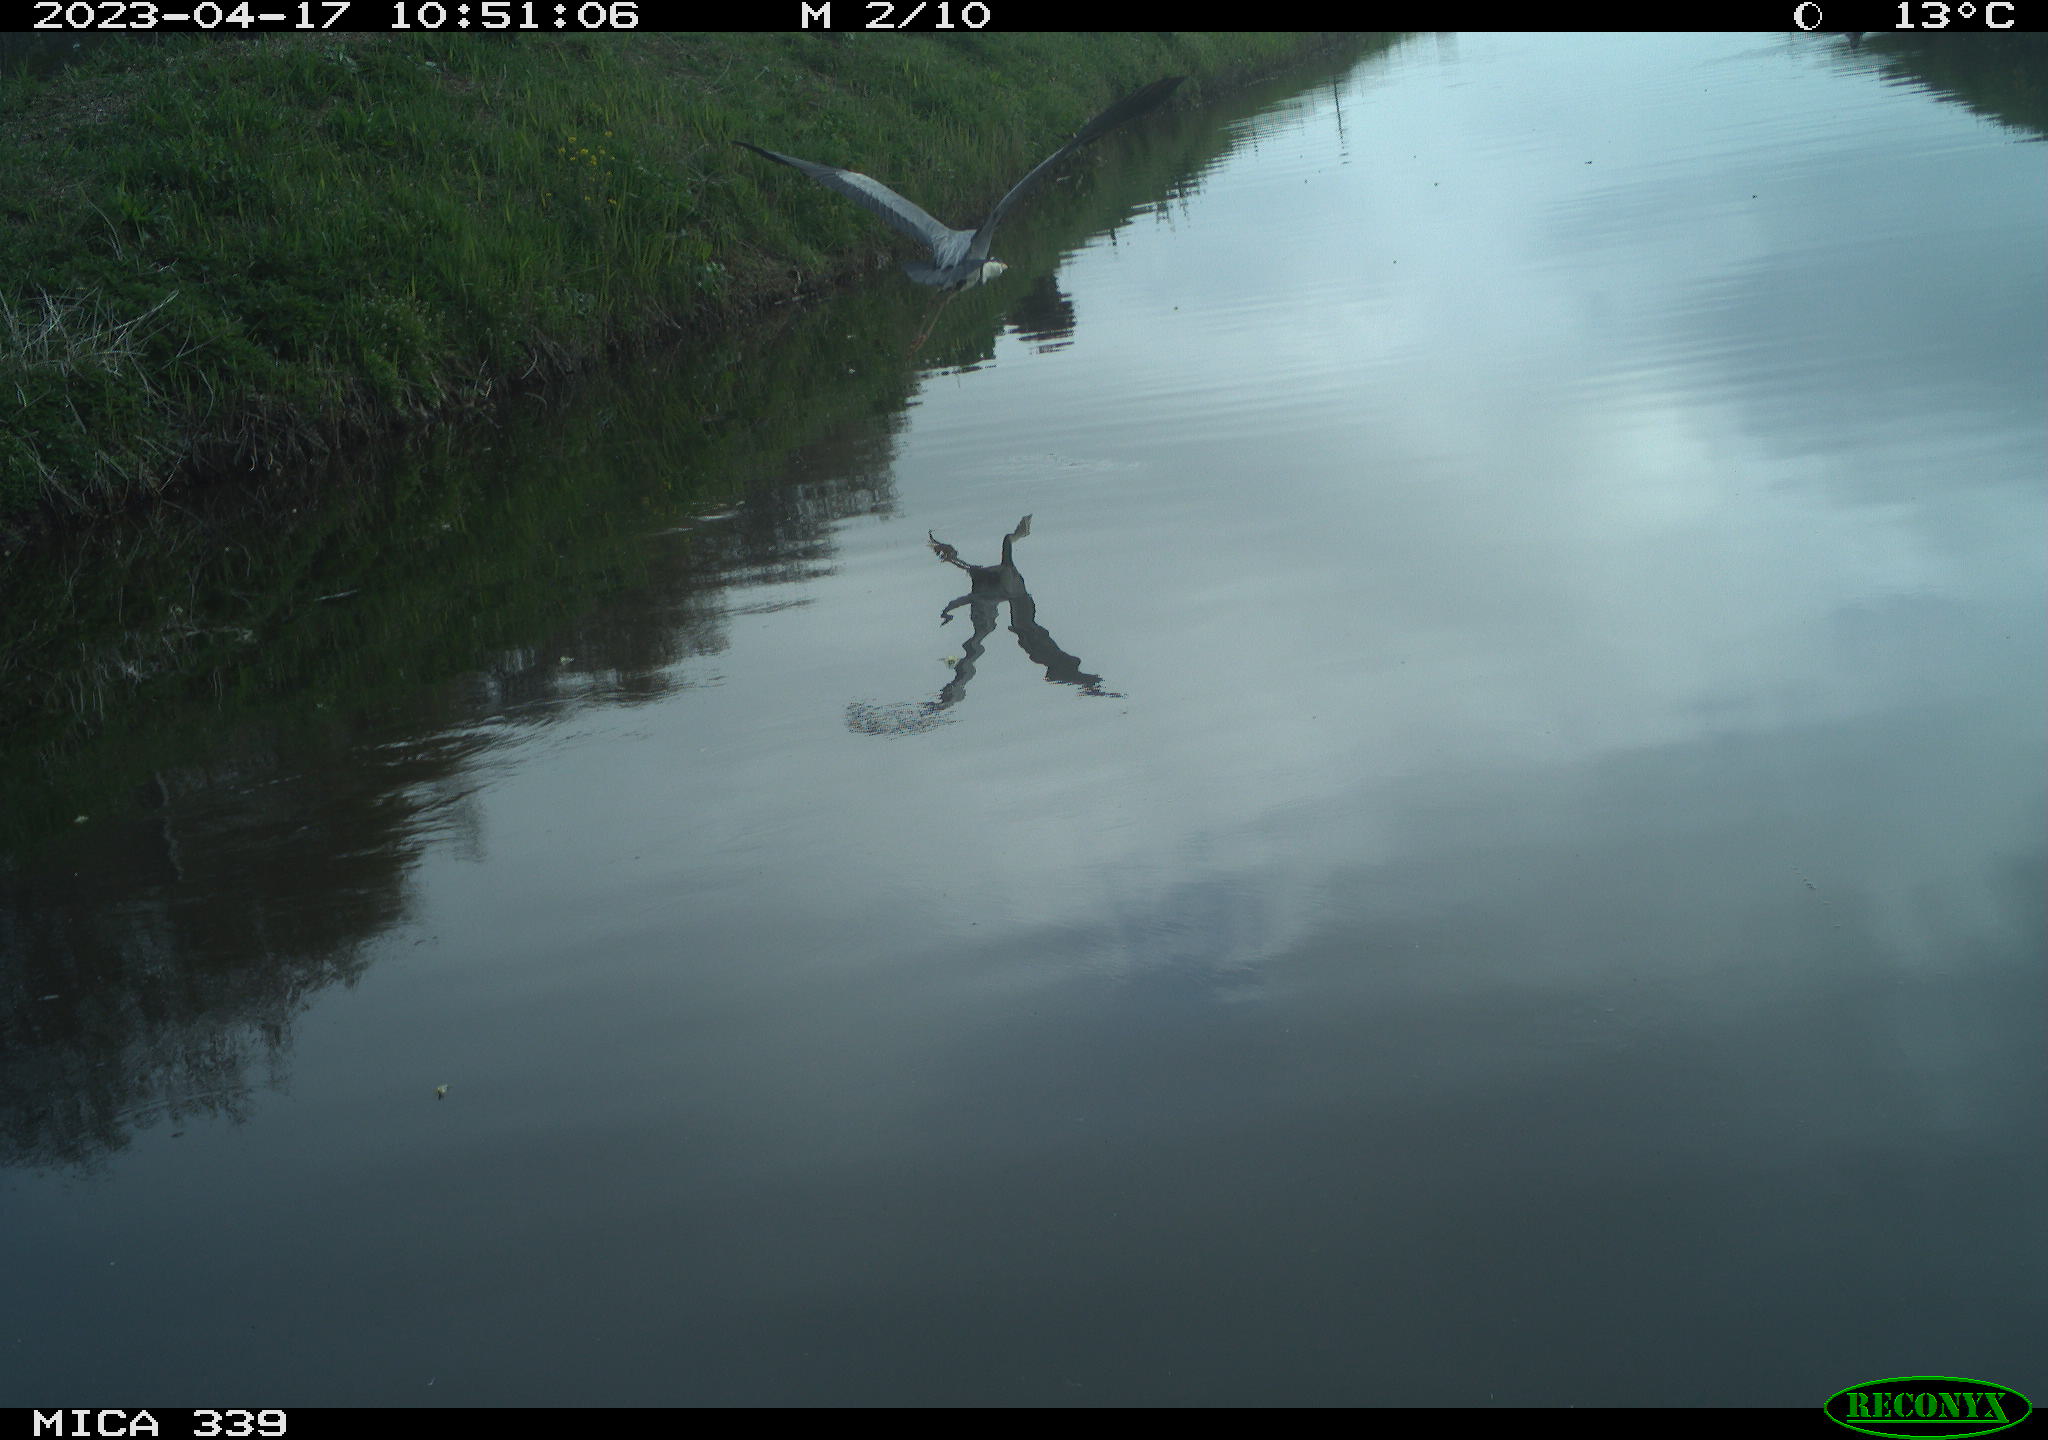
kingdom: Animalia
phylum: Chordata
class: Aves
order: Anseriformes
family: Anatidae
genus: Anas
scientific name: Anas platyrhynchos
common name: Mallard
